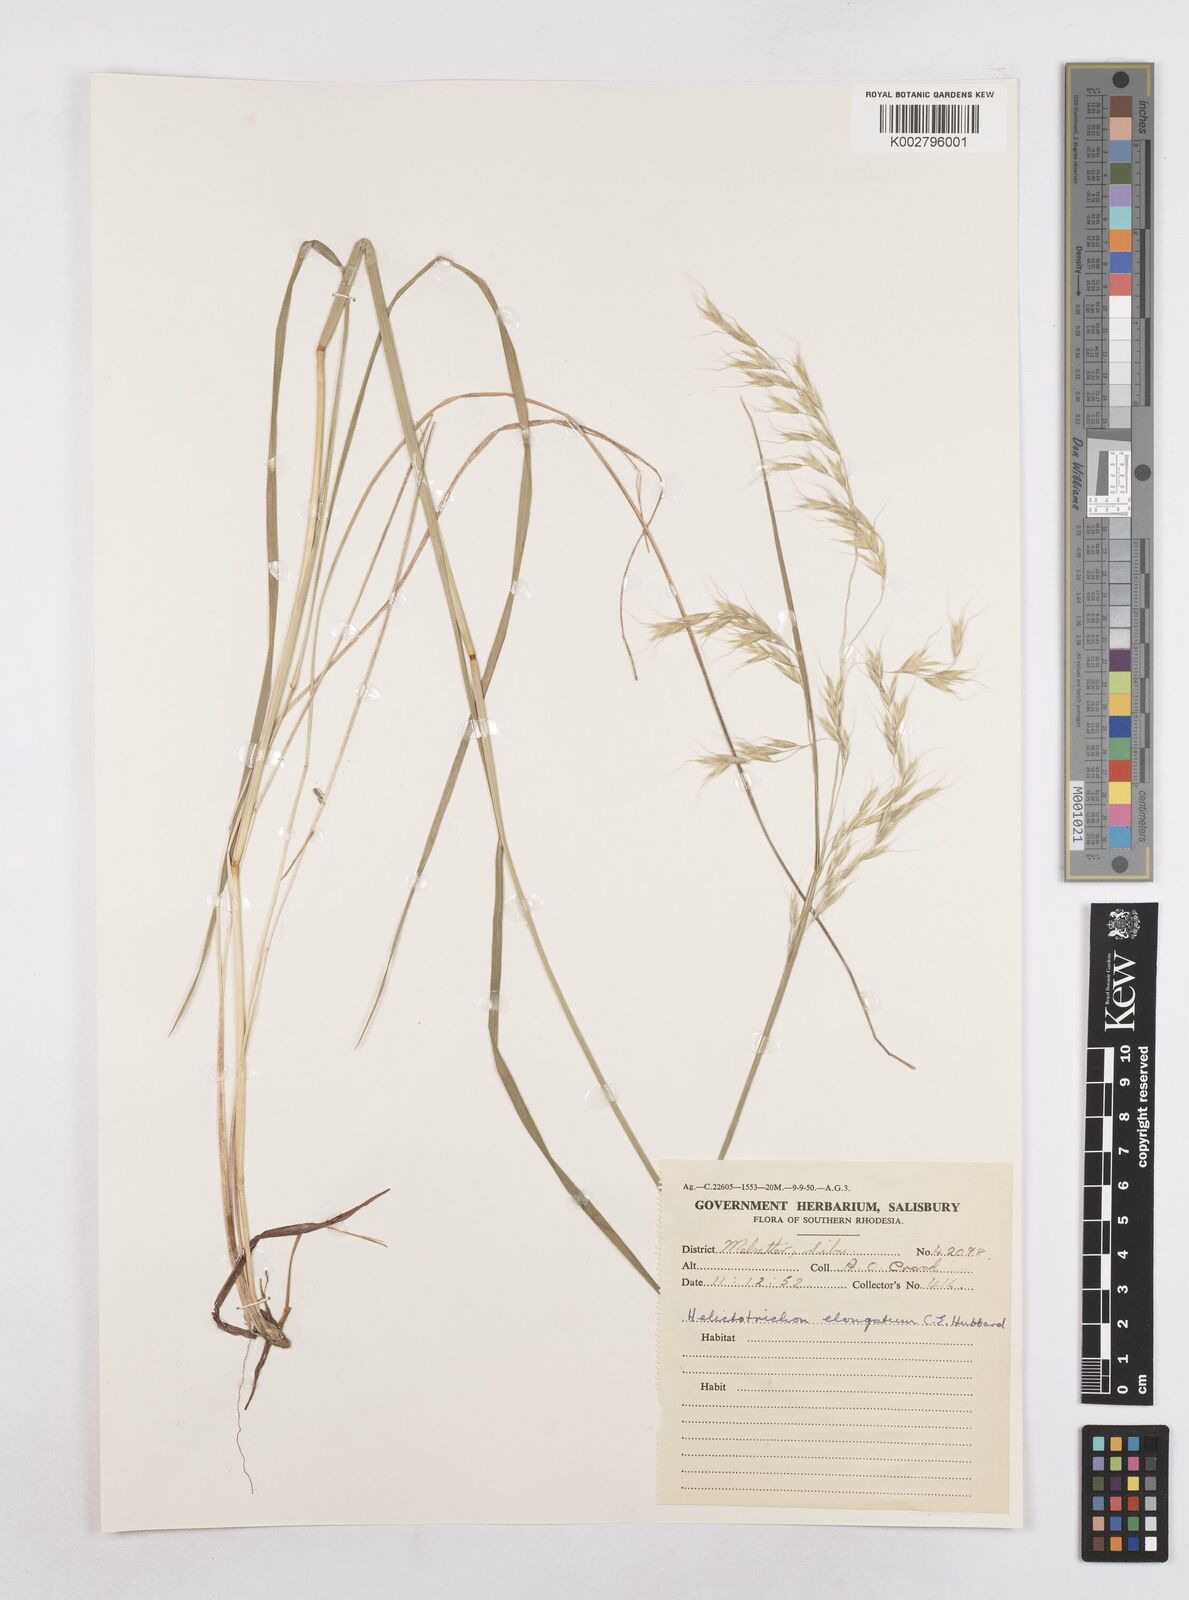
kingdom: Plantae
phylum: Tracheophyta
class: Liliopsida
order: Poales
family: Poaceae
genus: Trisetopsis
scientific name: Trisetopsis elongata
